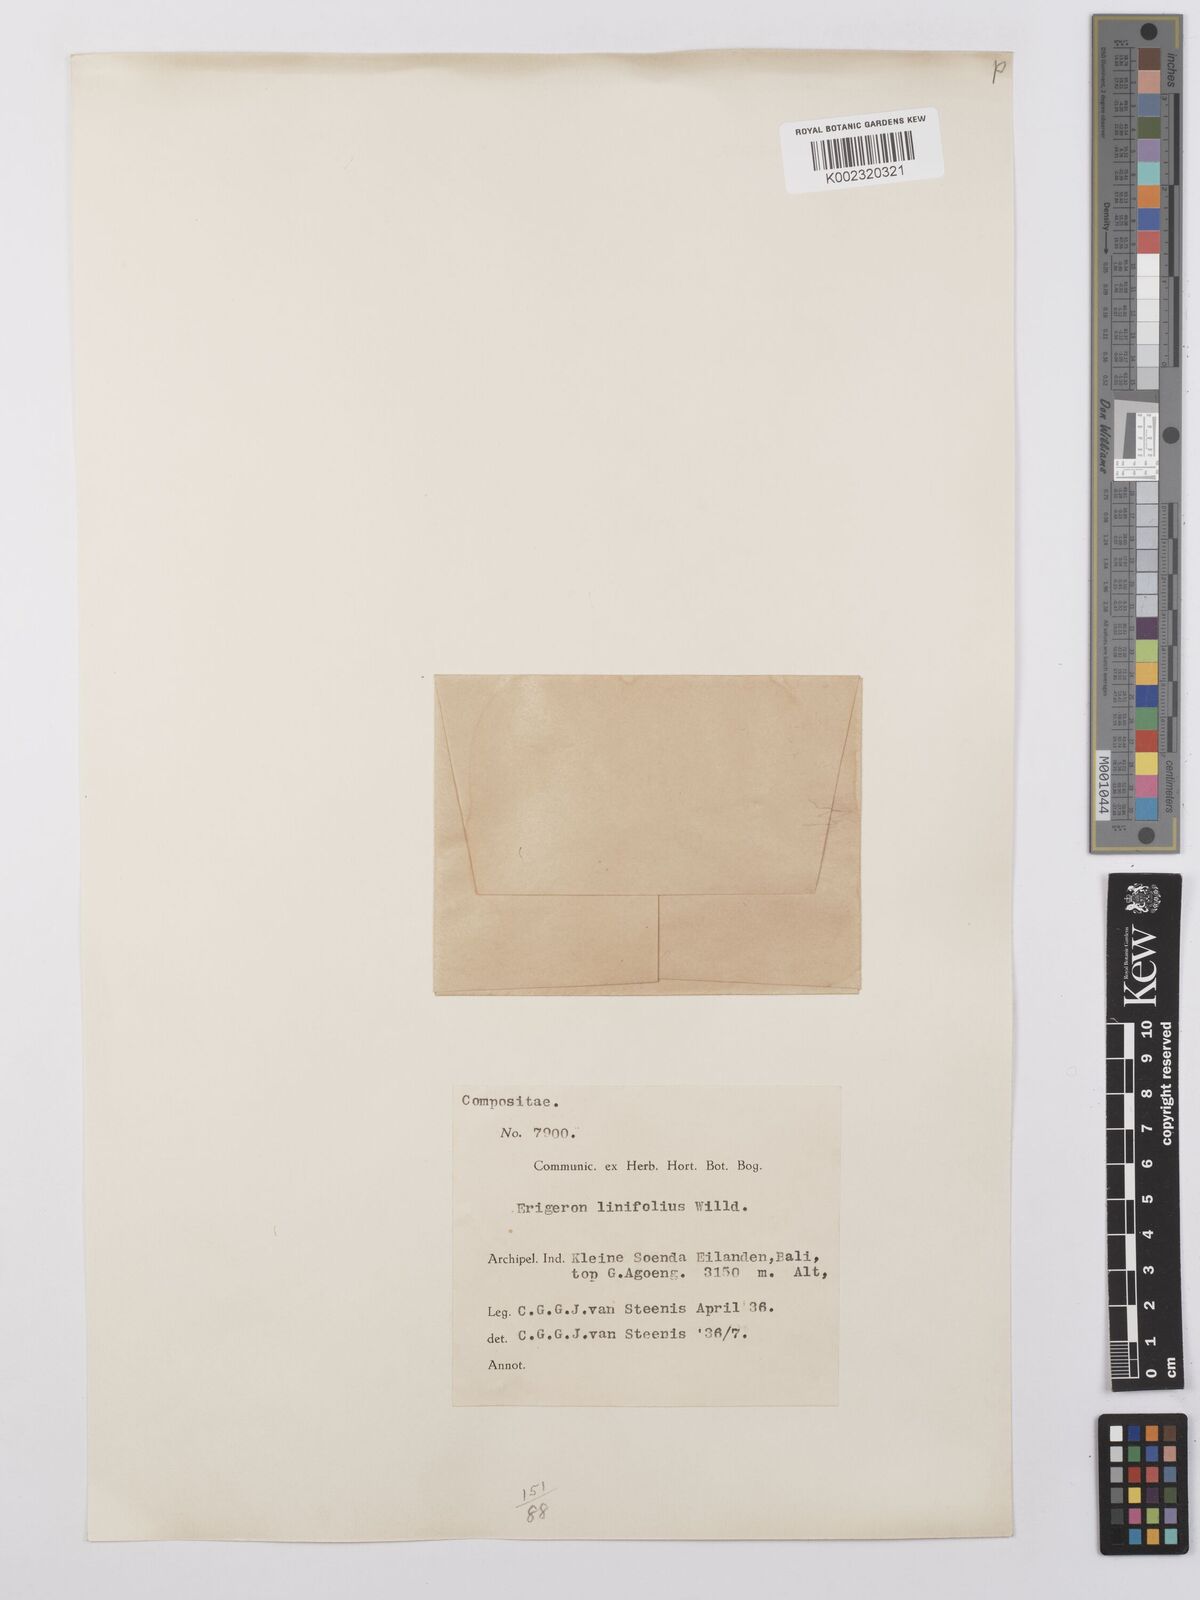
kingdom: Plantae
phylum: Tracheophyta
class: Magnoliopsida
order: Asterales
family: Asteraceae
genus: Erigeron
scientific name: Erigeron sumatrensis
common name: Daisy
